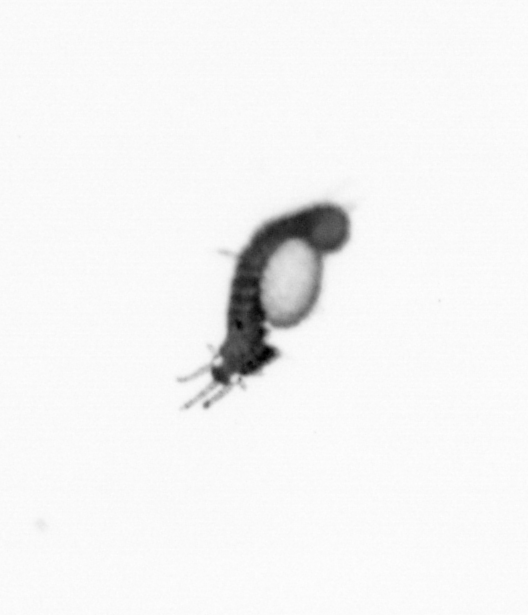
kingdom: Animalia
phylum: Annelida
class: Polychaeta
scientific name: Polychaeta
